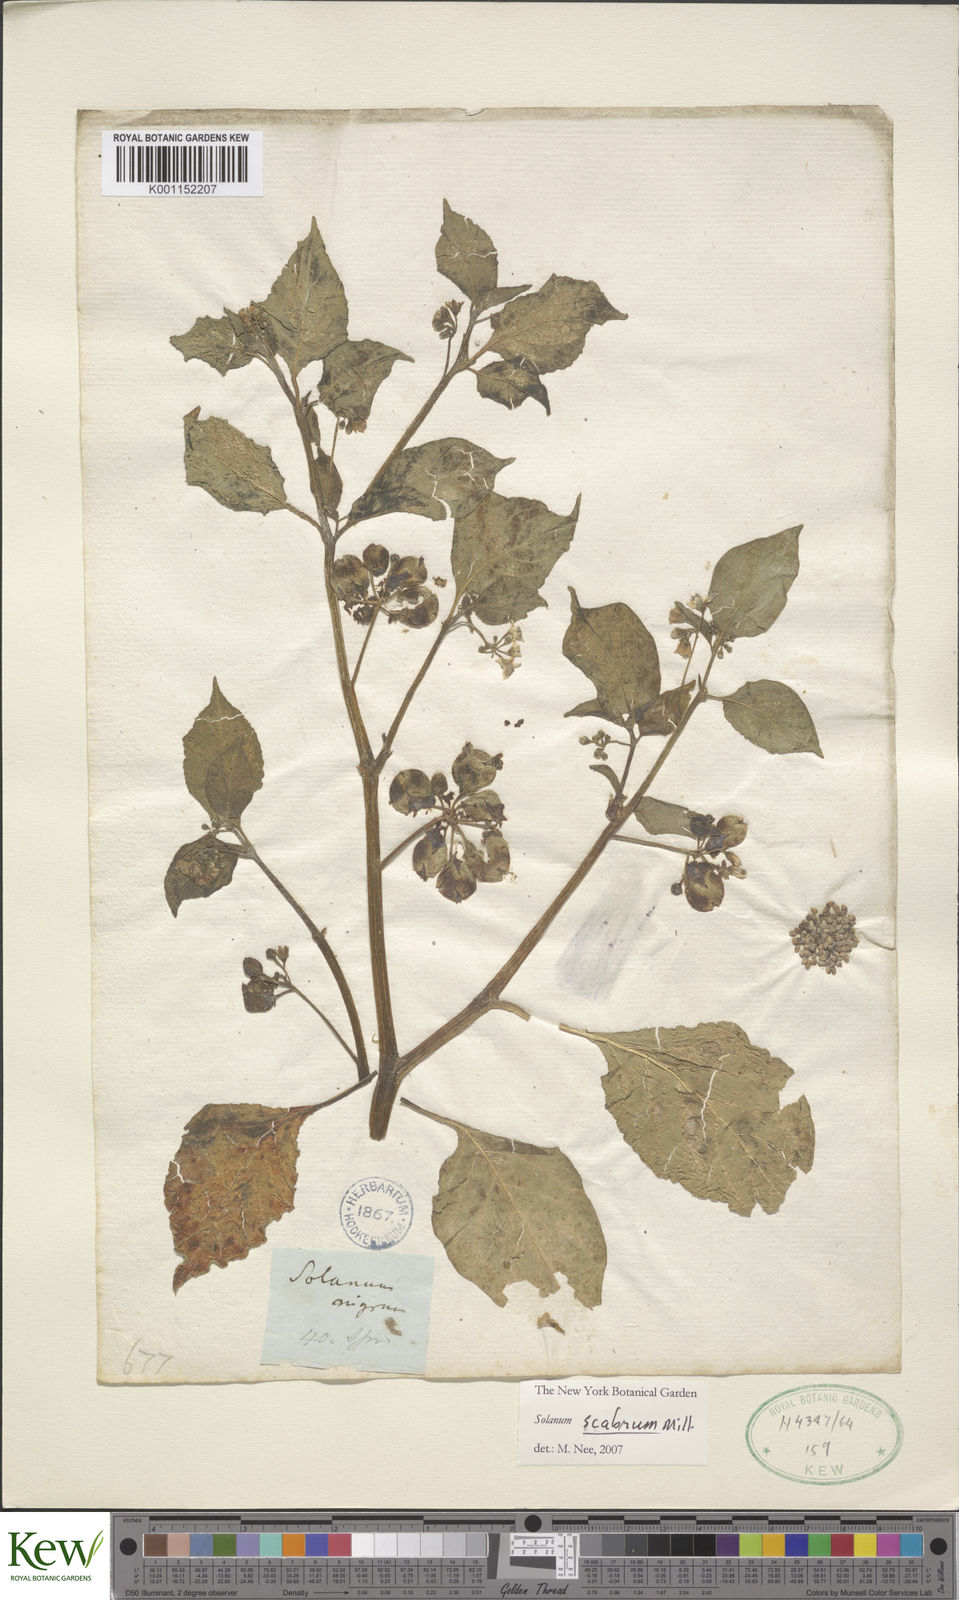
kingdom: Plantae
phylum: Tracheophyta
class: Magnoliopsida
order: Solanales
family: Solanaceae
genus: Solanum
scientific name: Solanum scabrum
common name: Garden-huckleberry
